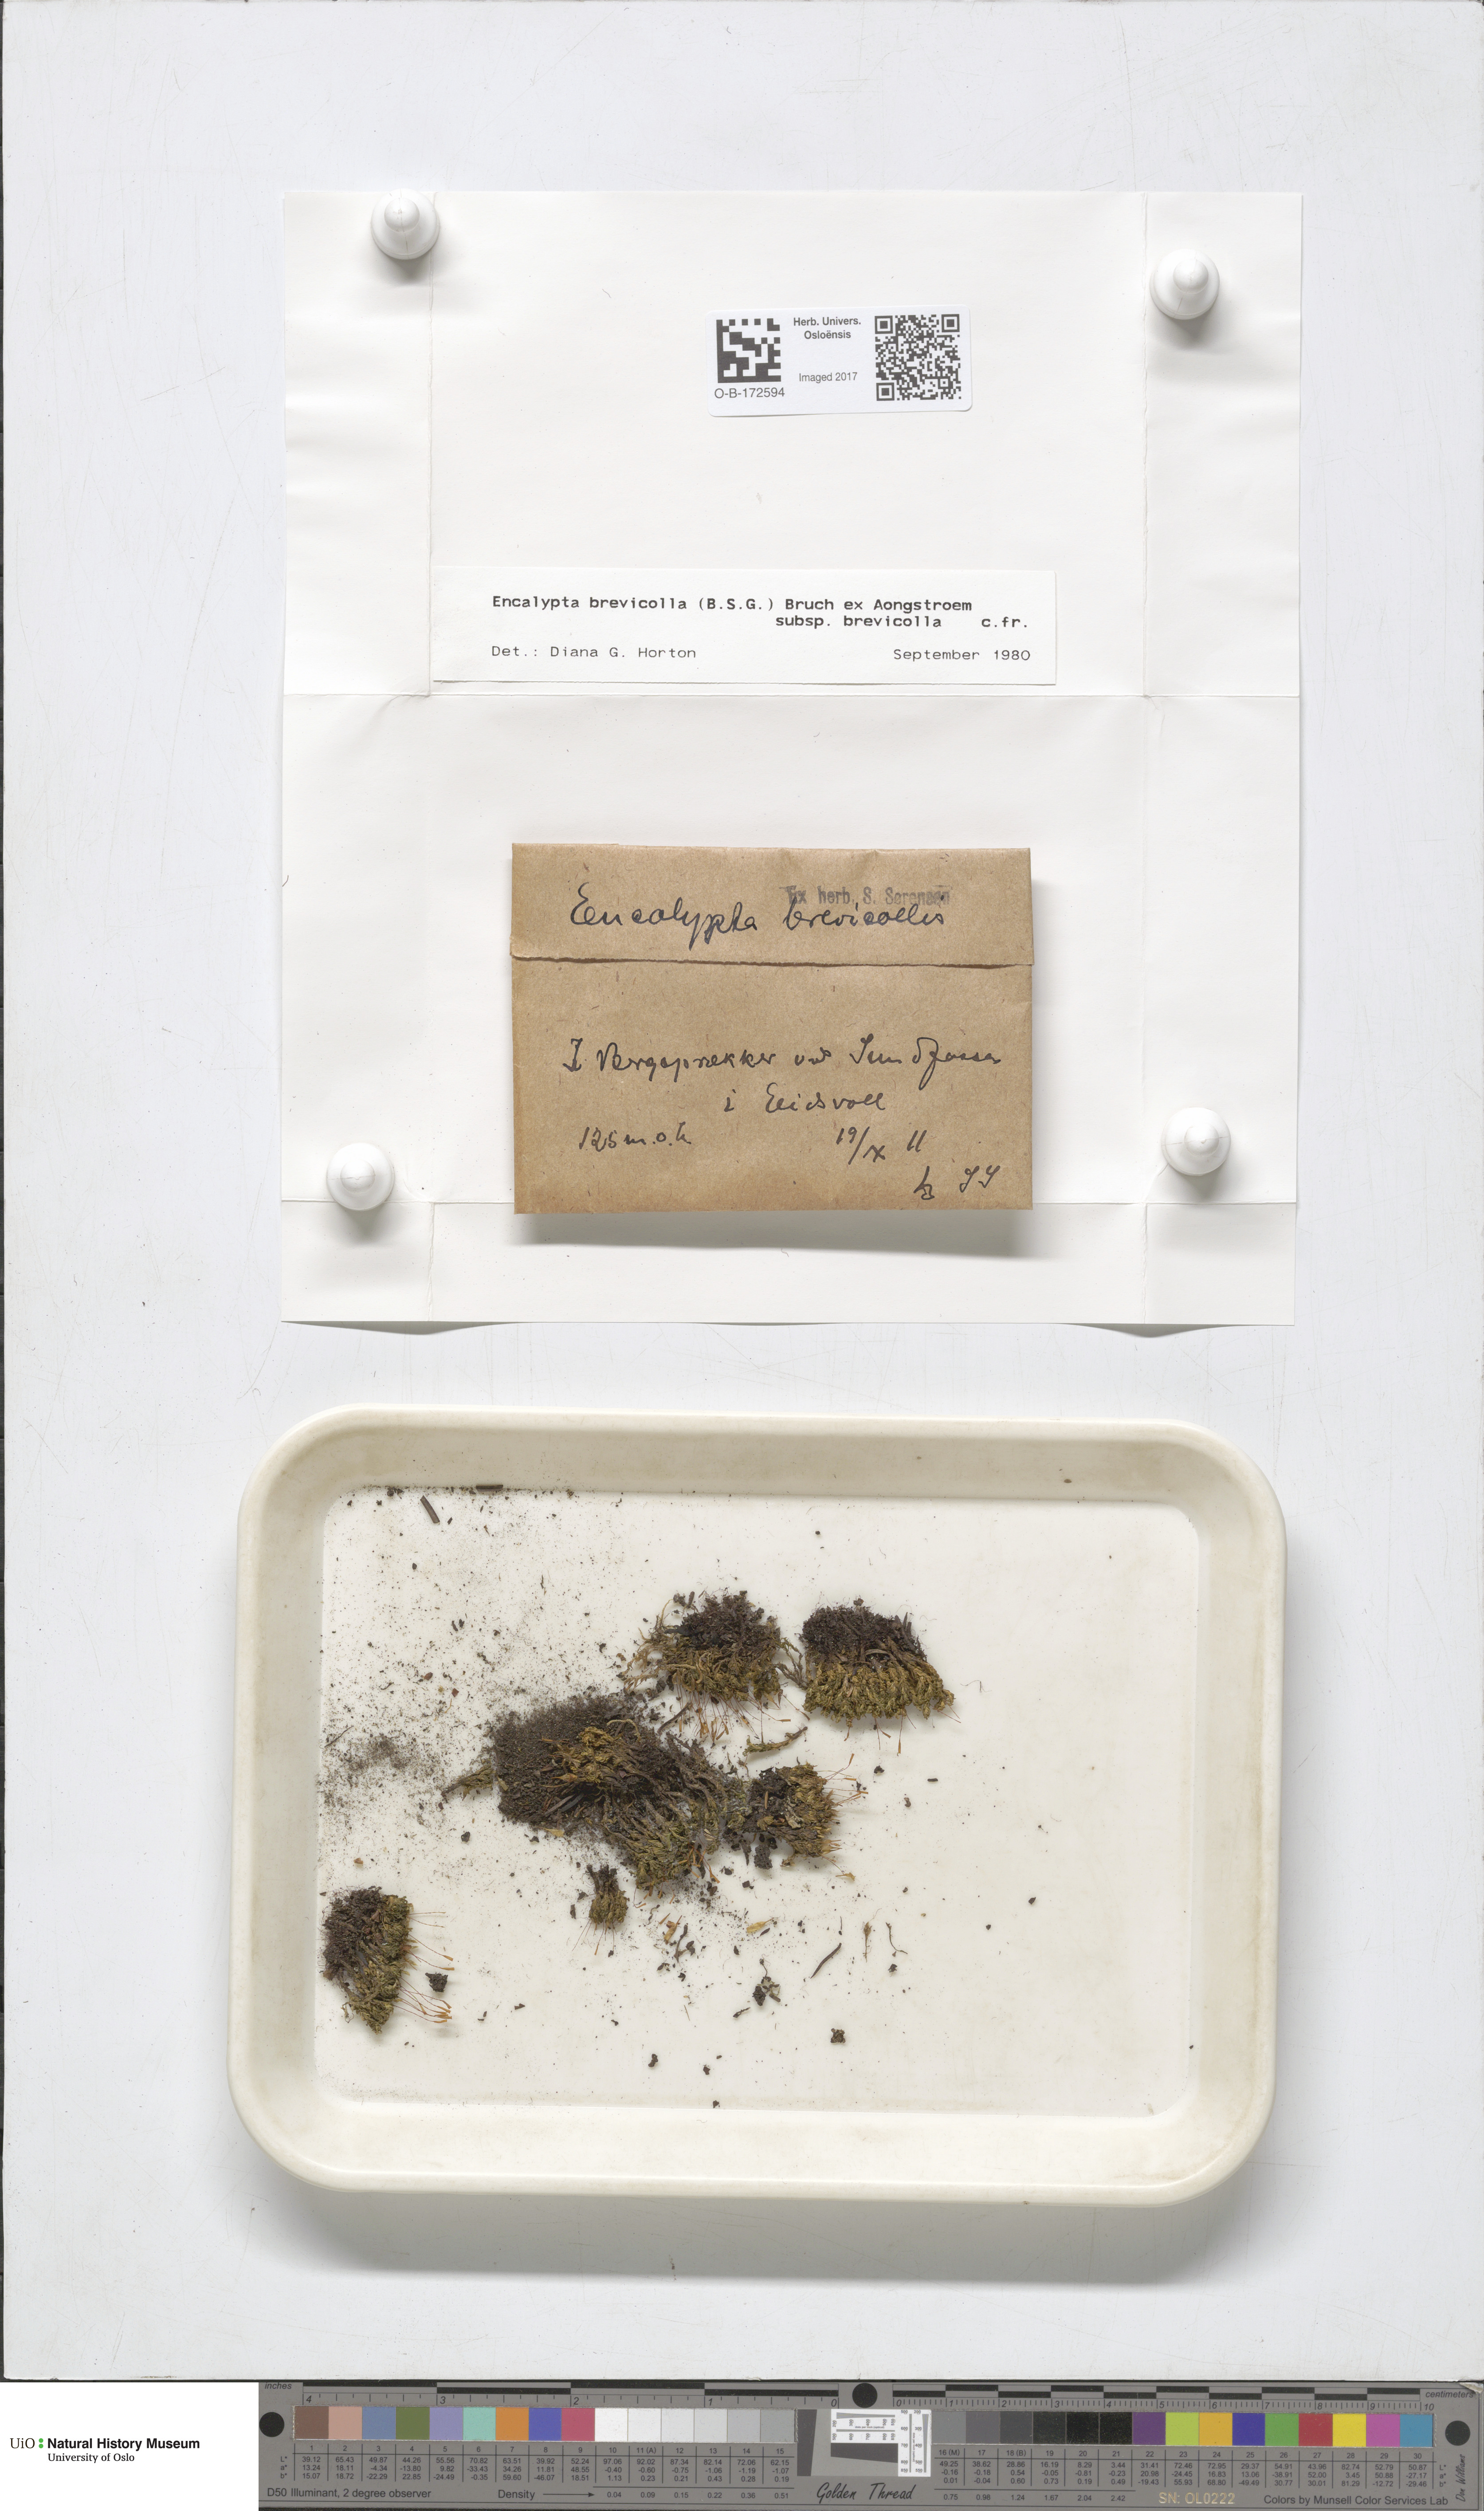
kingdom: Plantae
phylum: Bryophyta
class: Bryopsida
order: Encalyptales
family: Encalyptaceae
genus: Encalypta
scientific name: Encalypta brevicolla
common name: White-mouthed extinguisher-moss
